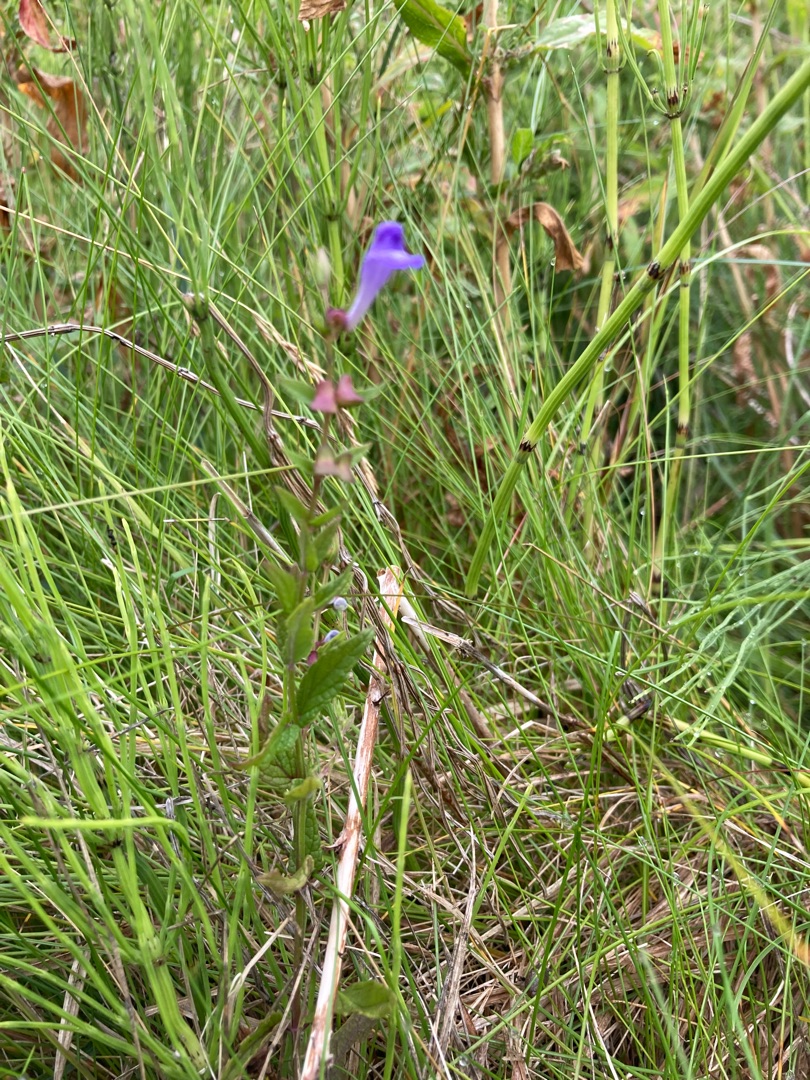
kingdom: Plantae
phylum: Tracheophyta
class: Magnoliopsida
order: Lamiales
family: Lamiaceae
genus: Scutellaria
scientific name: Scutellaria galericulata
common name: Almindelig skjolddrager
